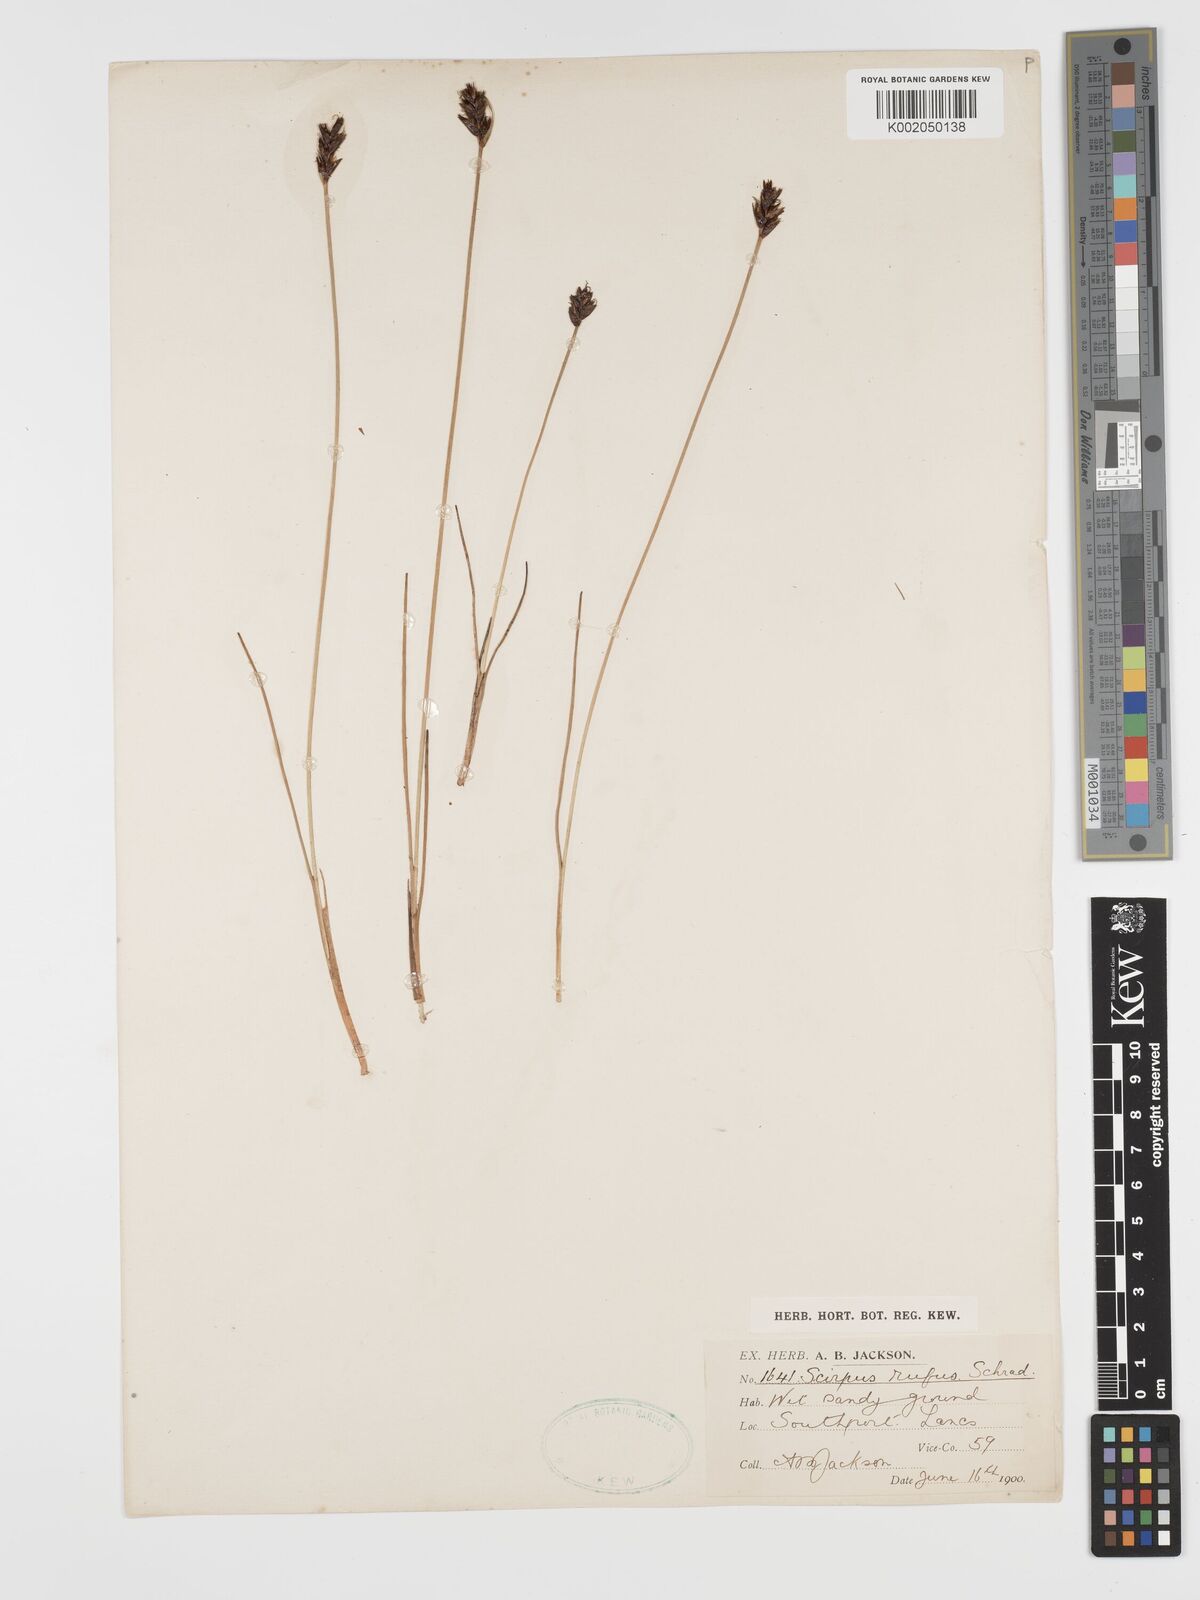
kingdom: Plantae
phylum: Tracheophyta
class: Liliopsida
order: Poales
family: Cyperaceae
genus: Blysmus
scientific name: Blysmus rufus
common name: Saltmarsh flat-sedge
